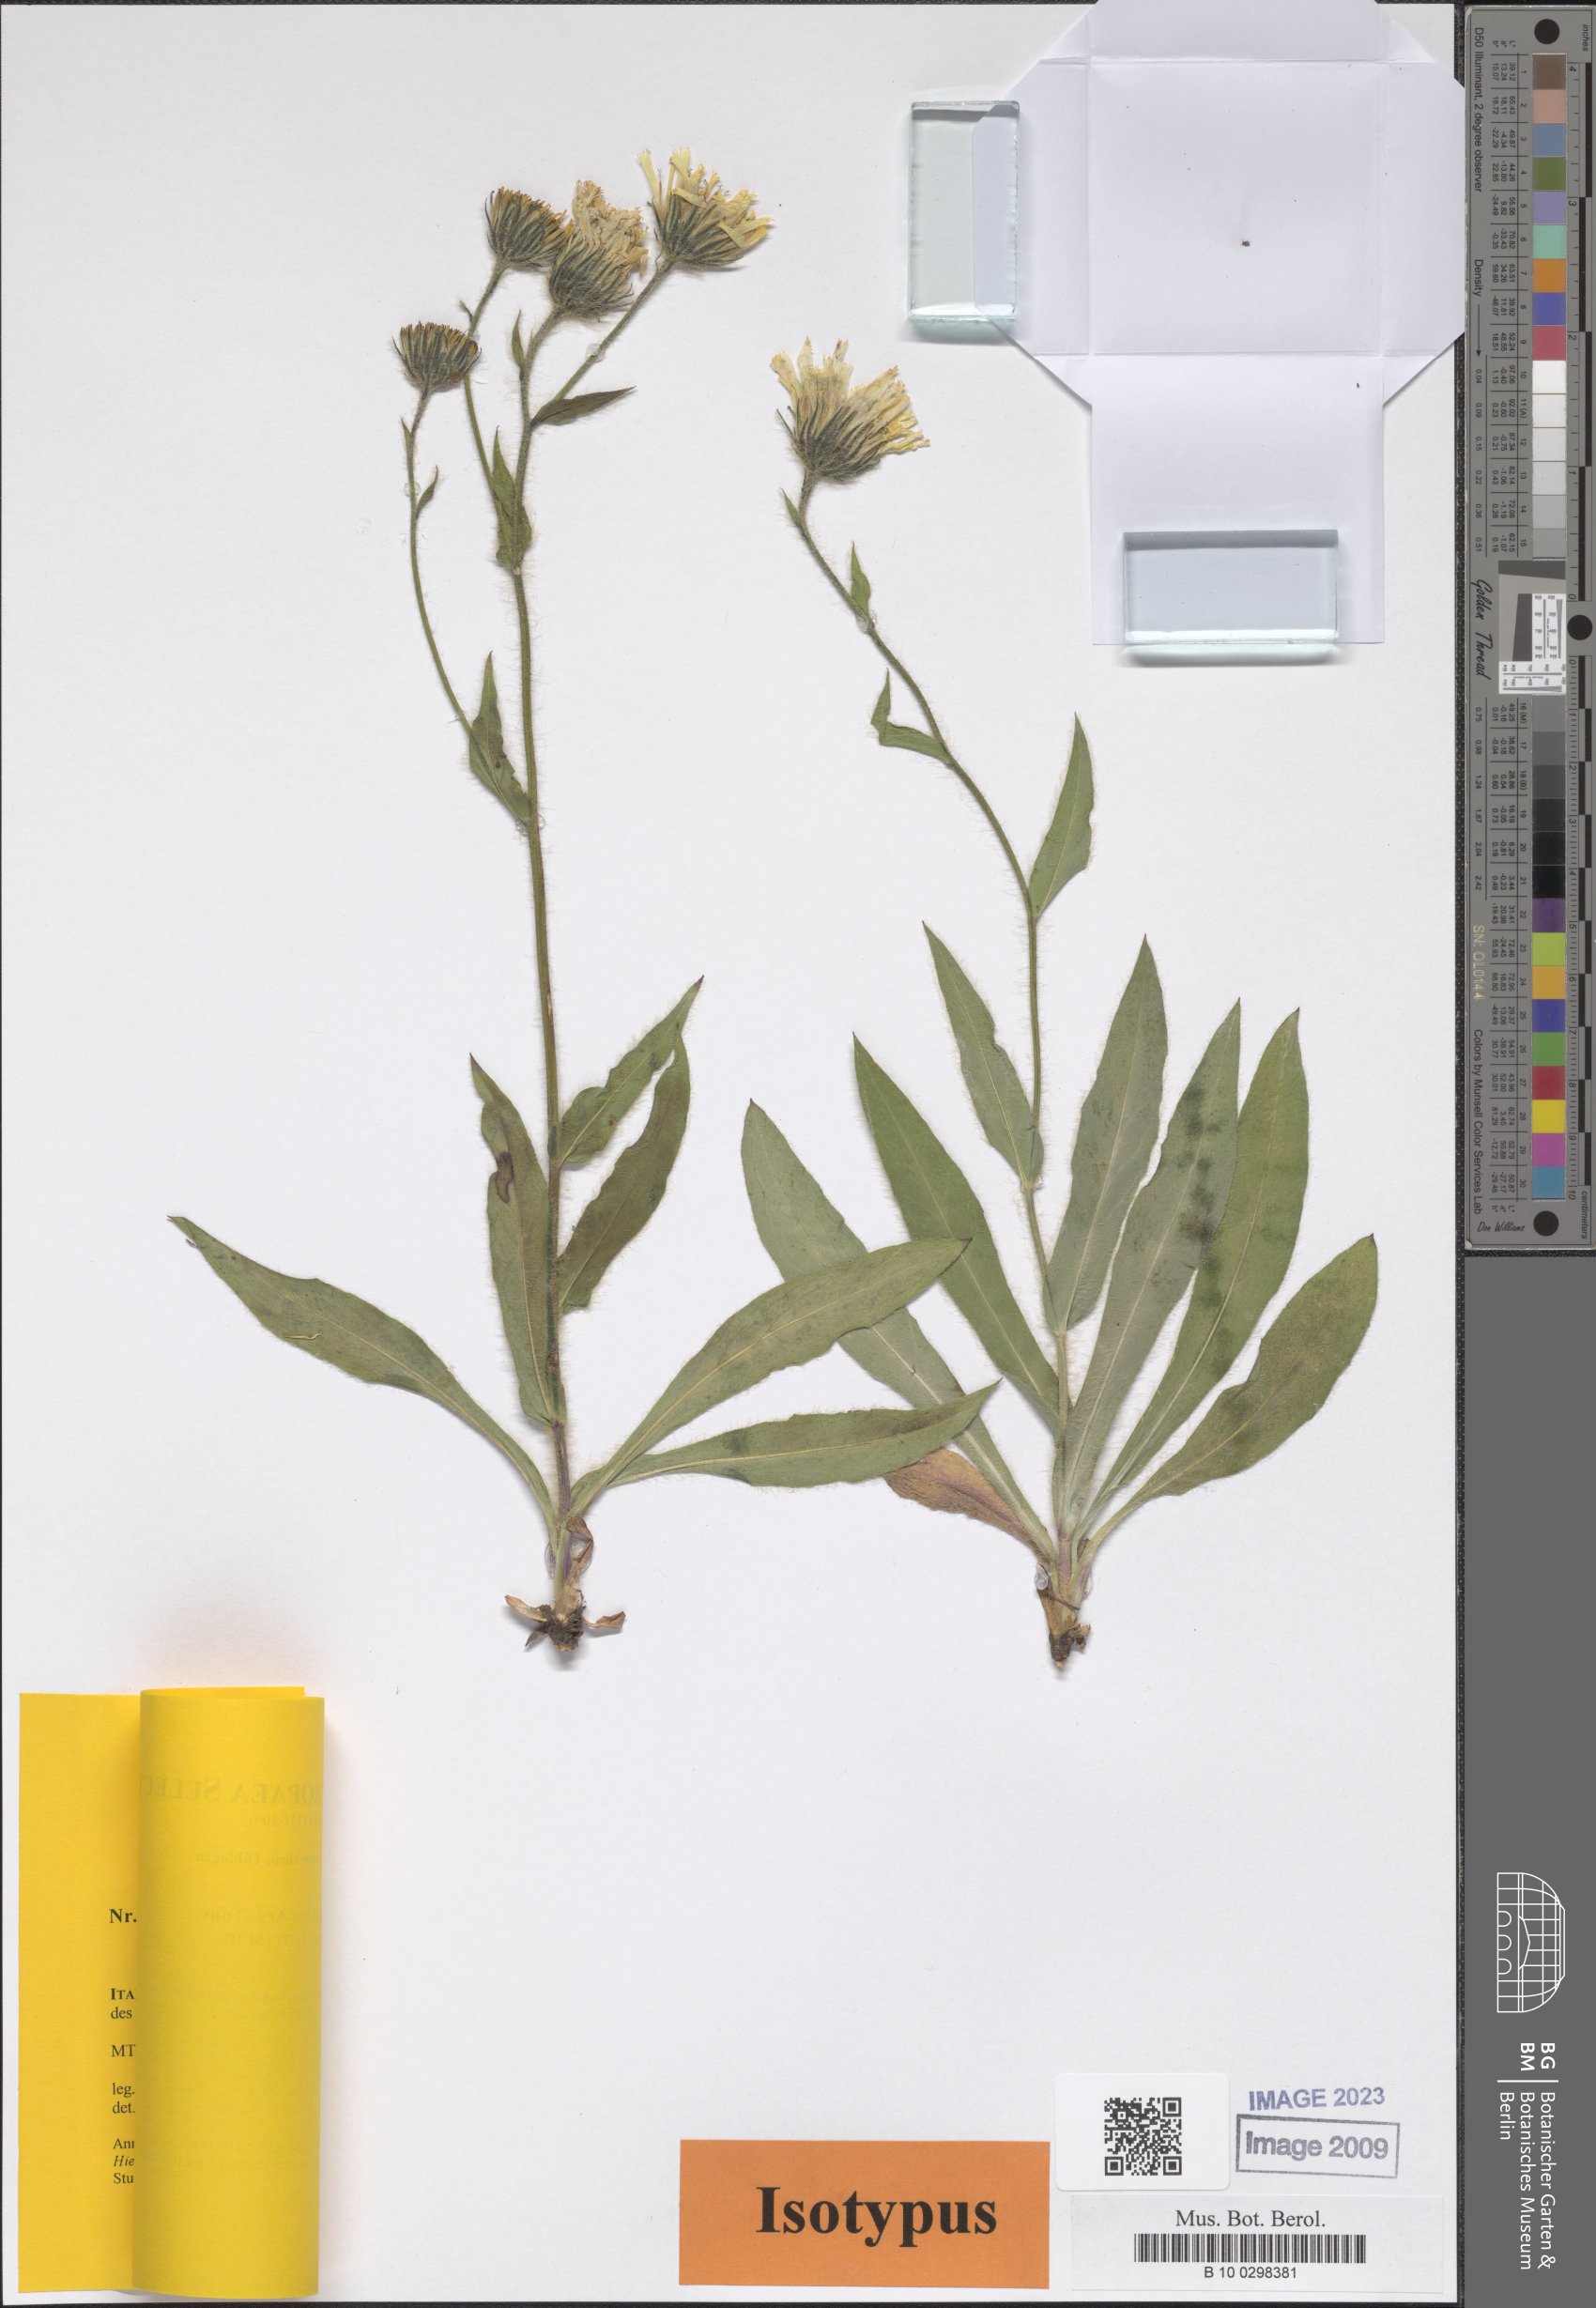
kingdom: Plantae
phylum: Tracheophyta
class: Magnoliopsida
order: Asterales
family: Asteraceae
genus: Hieracium
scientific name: Hieracium chlorifolium
